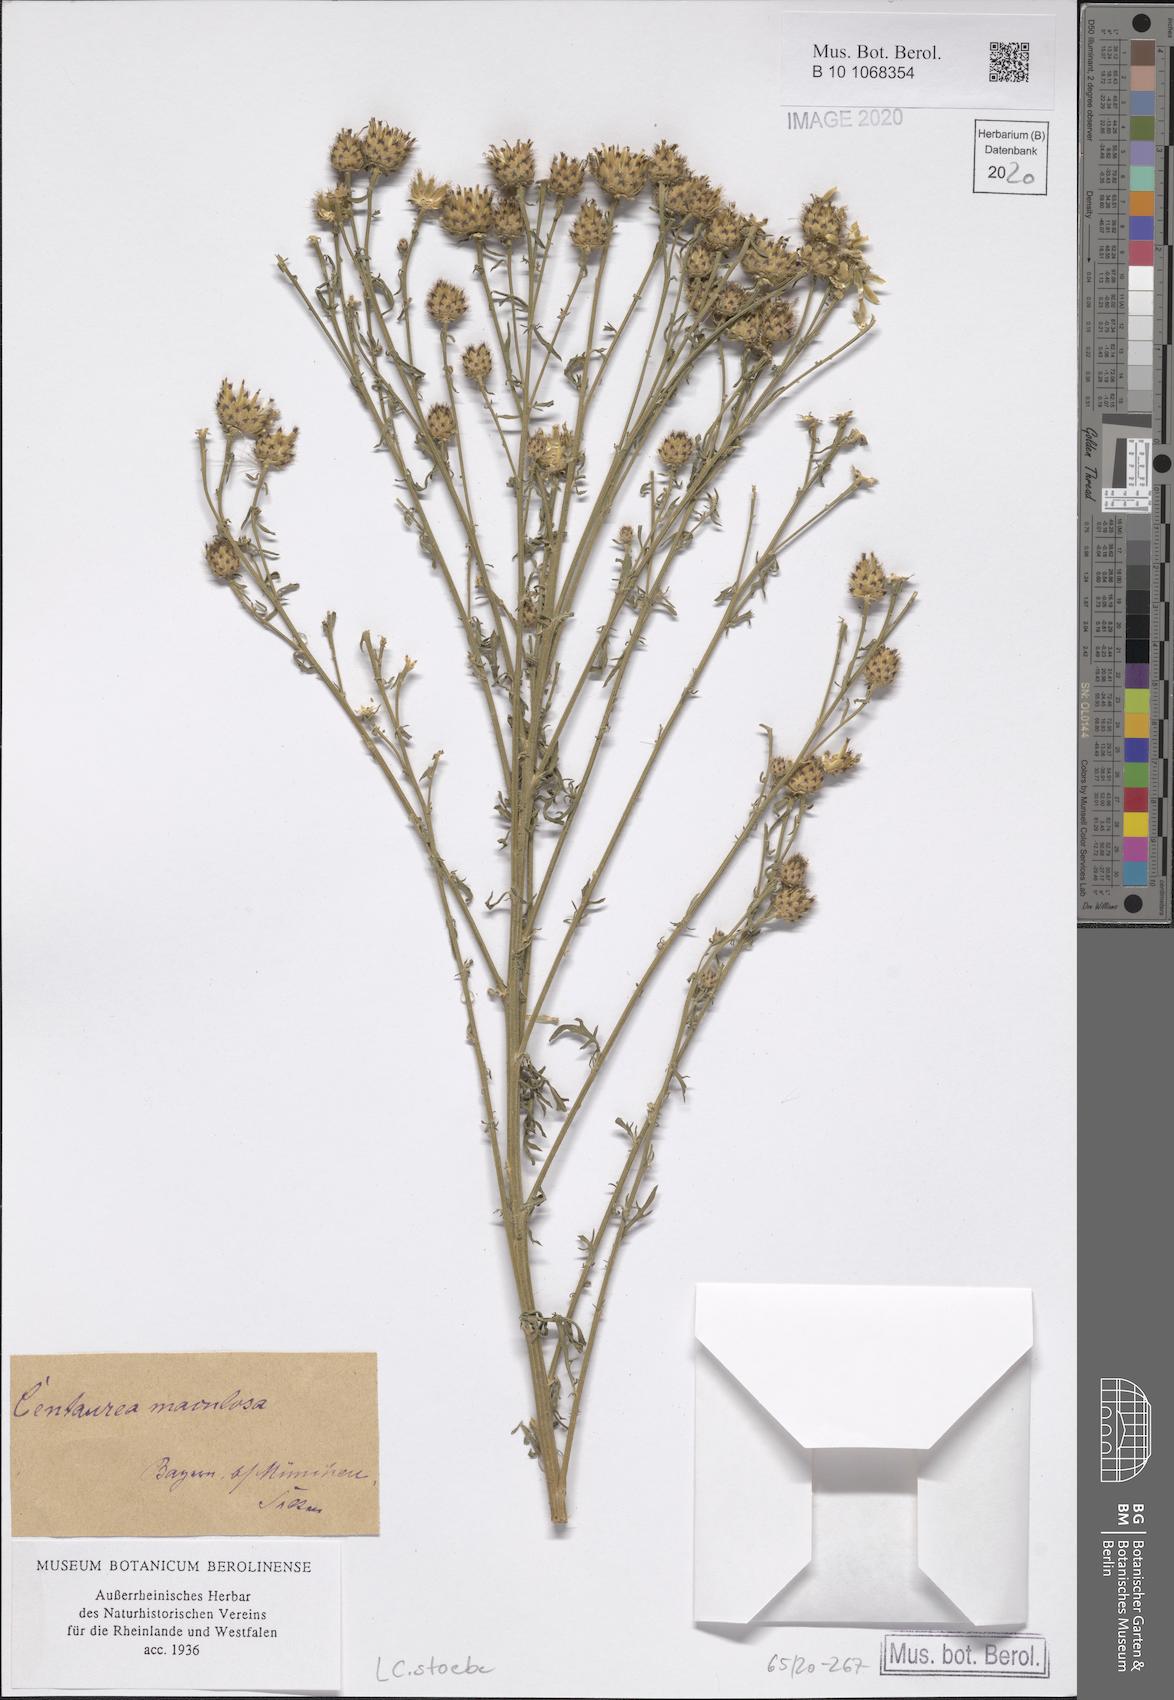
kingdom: Plantae
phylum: Tracheophyta
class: Magnoliopsida
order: Asterales
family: Asteraceae
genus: Centaurea
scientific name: Centaurea stoebe
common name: Spotted knapweed
